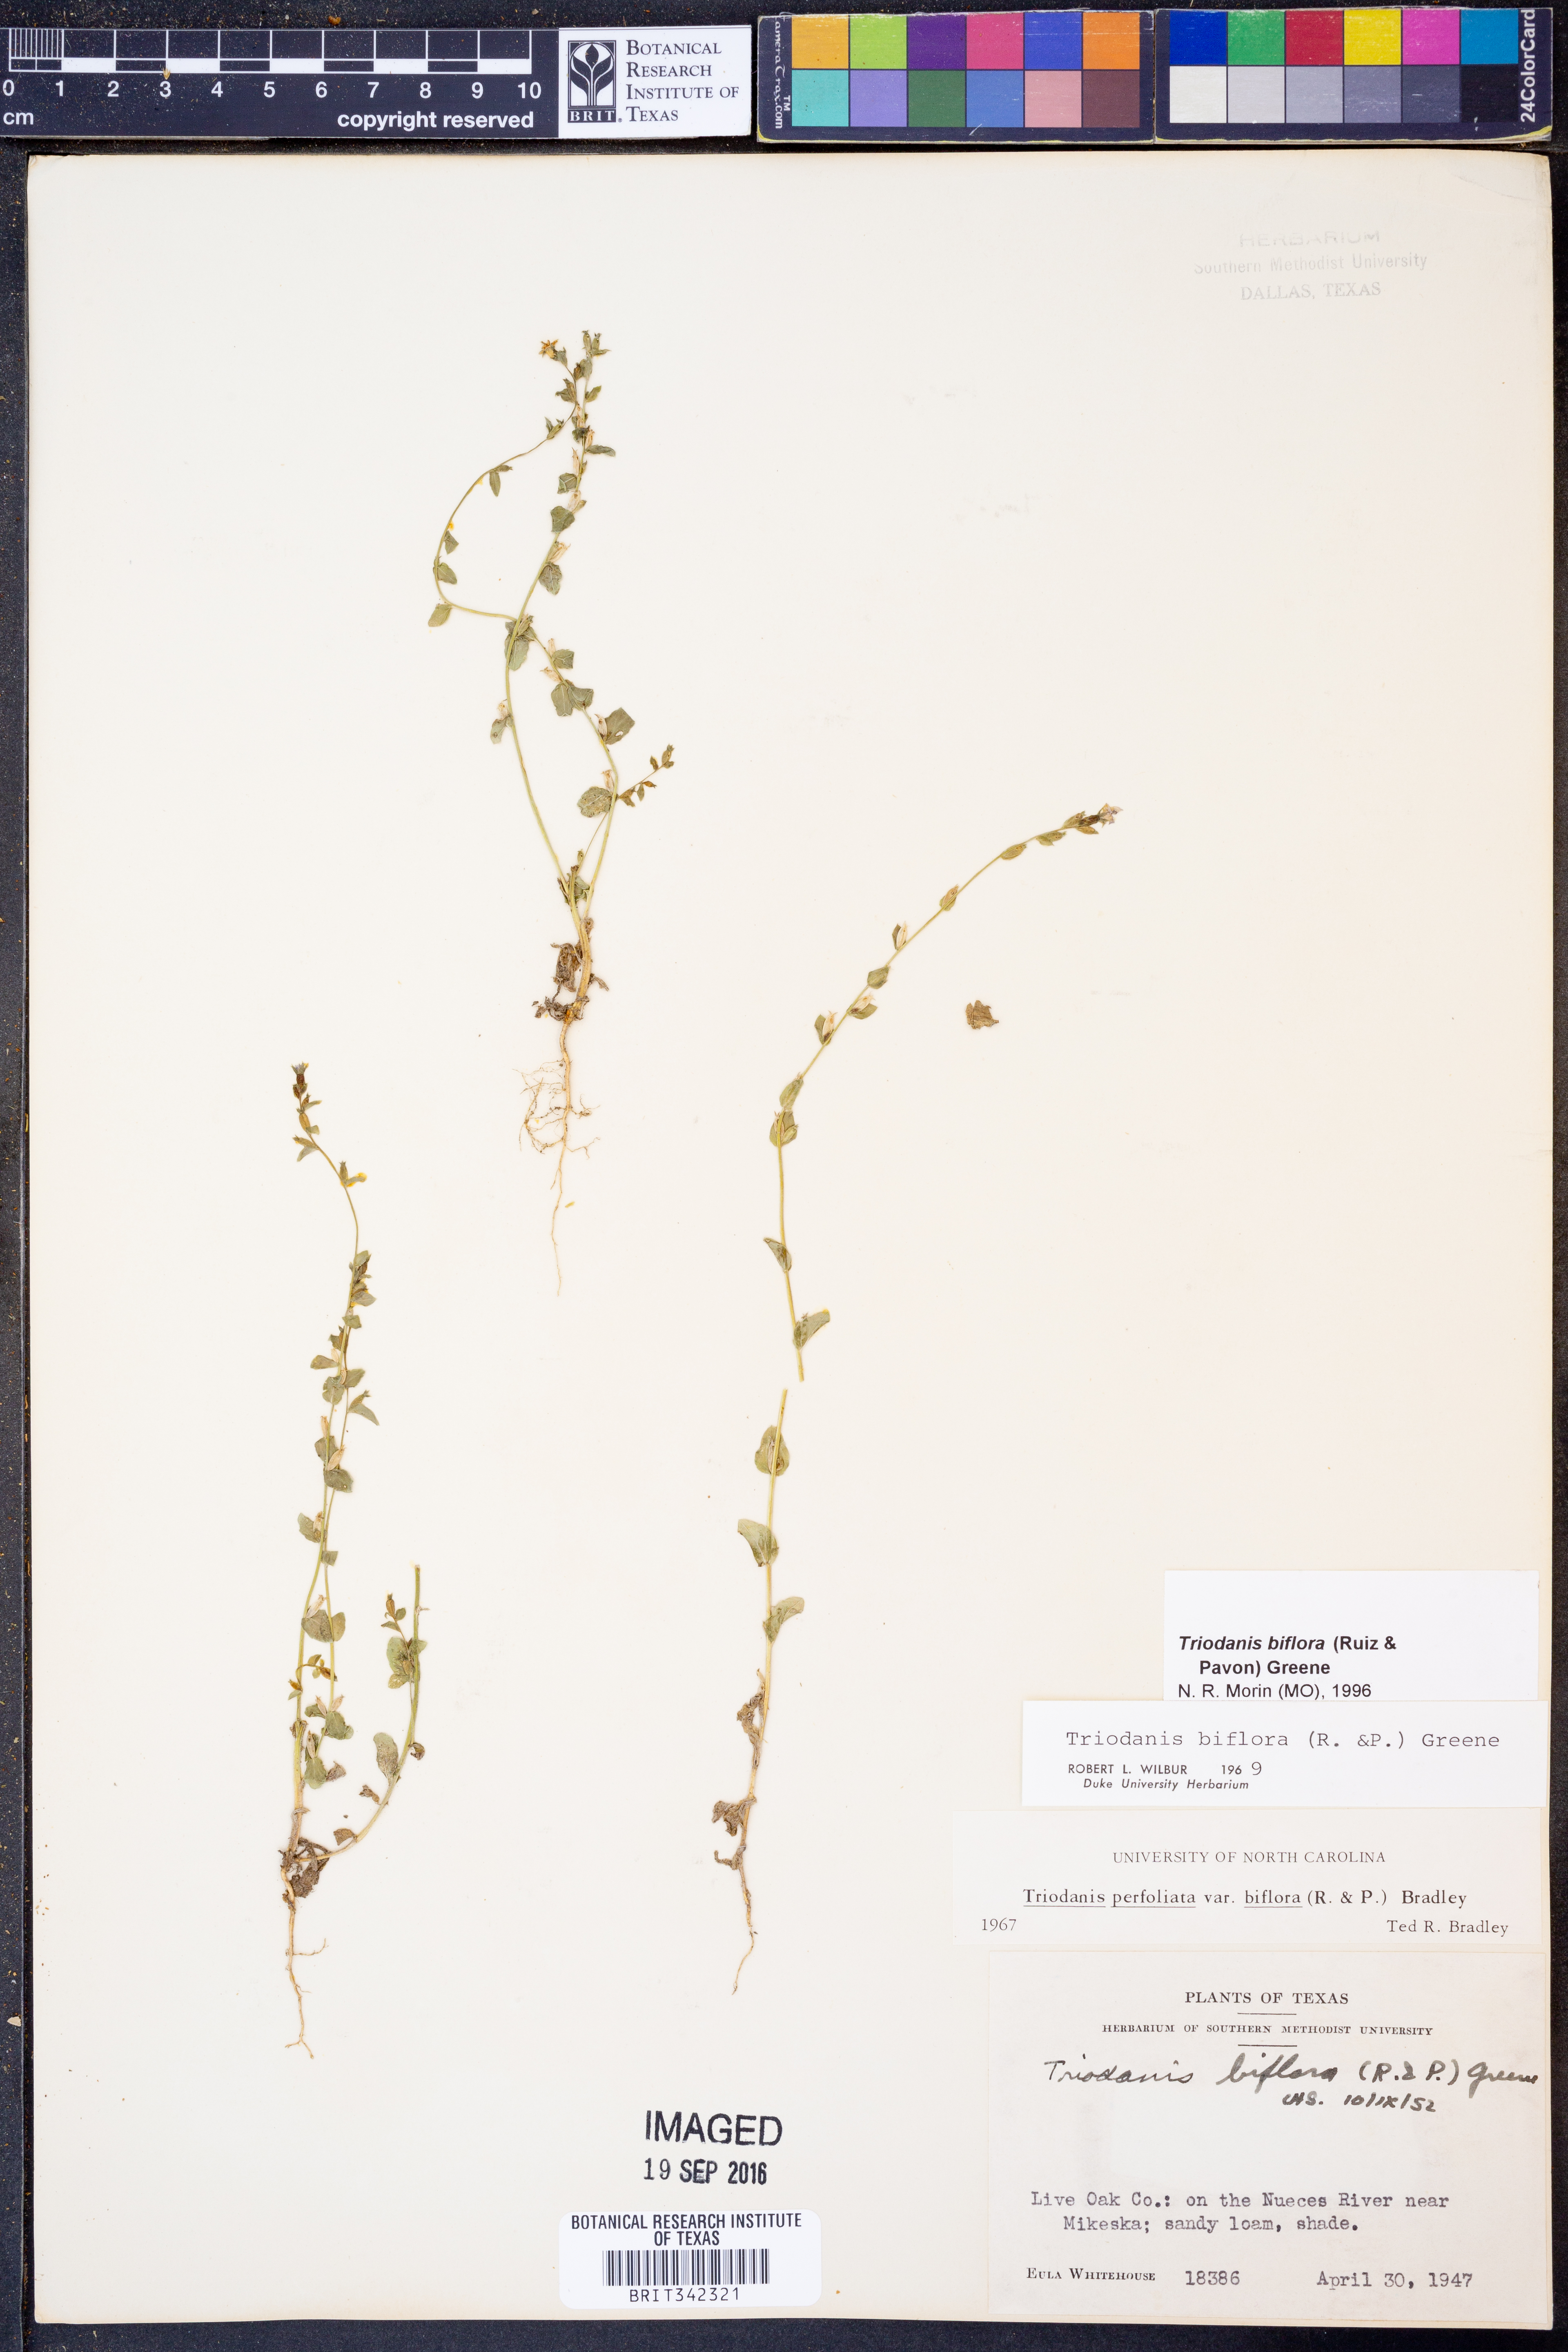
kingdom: Plantae
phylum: Tracheophyta
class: Magnoliopsida
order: Asterales
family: Campanulaceae
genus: Triodanis
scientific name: Triodanis perfoliata
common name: Clasping venus' looking-glass
